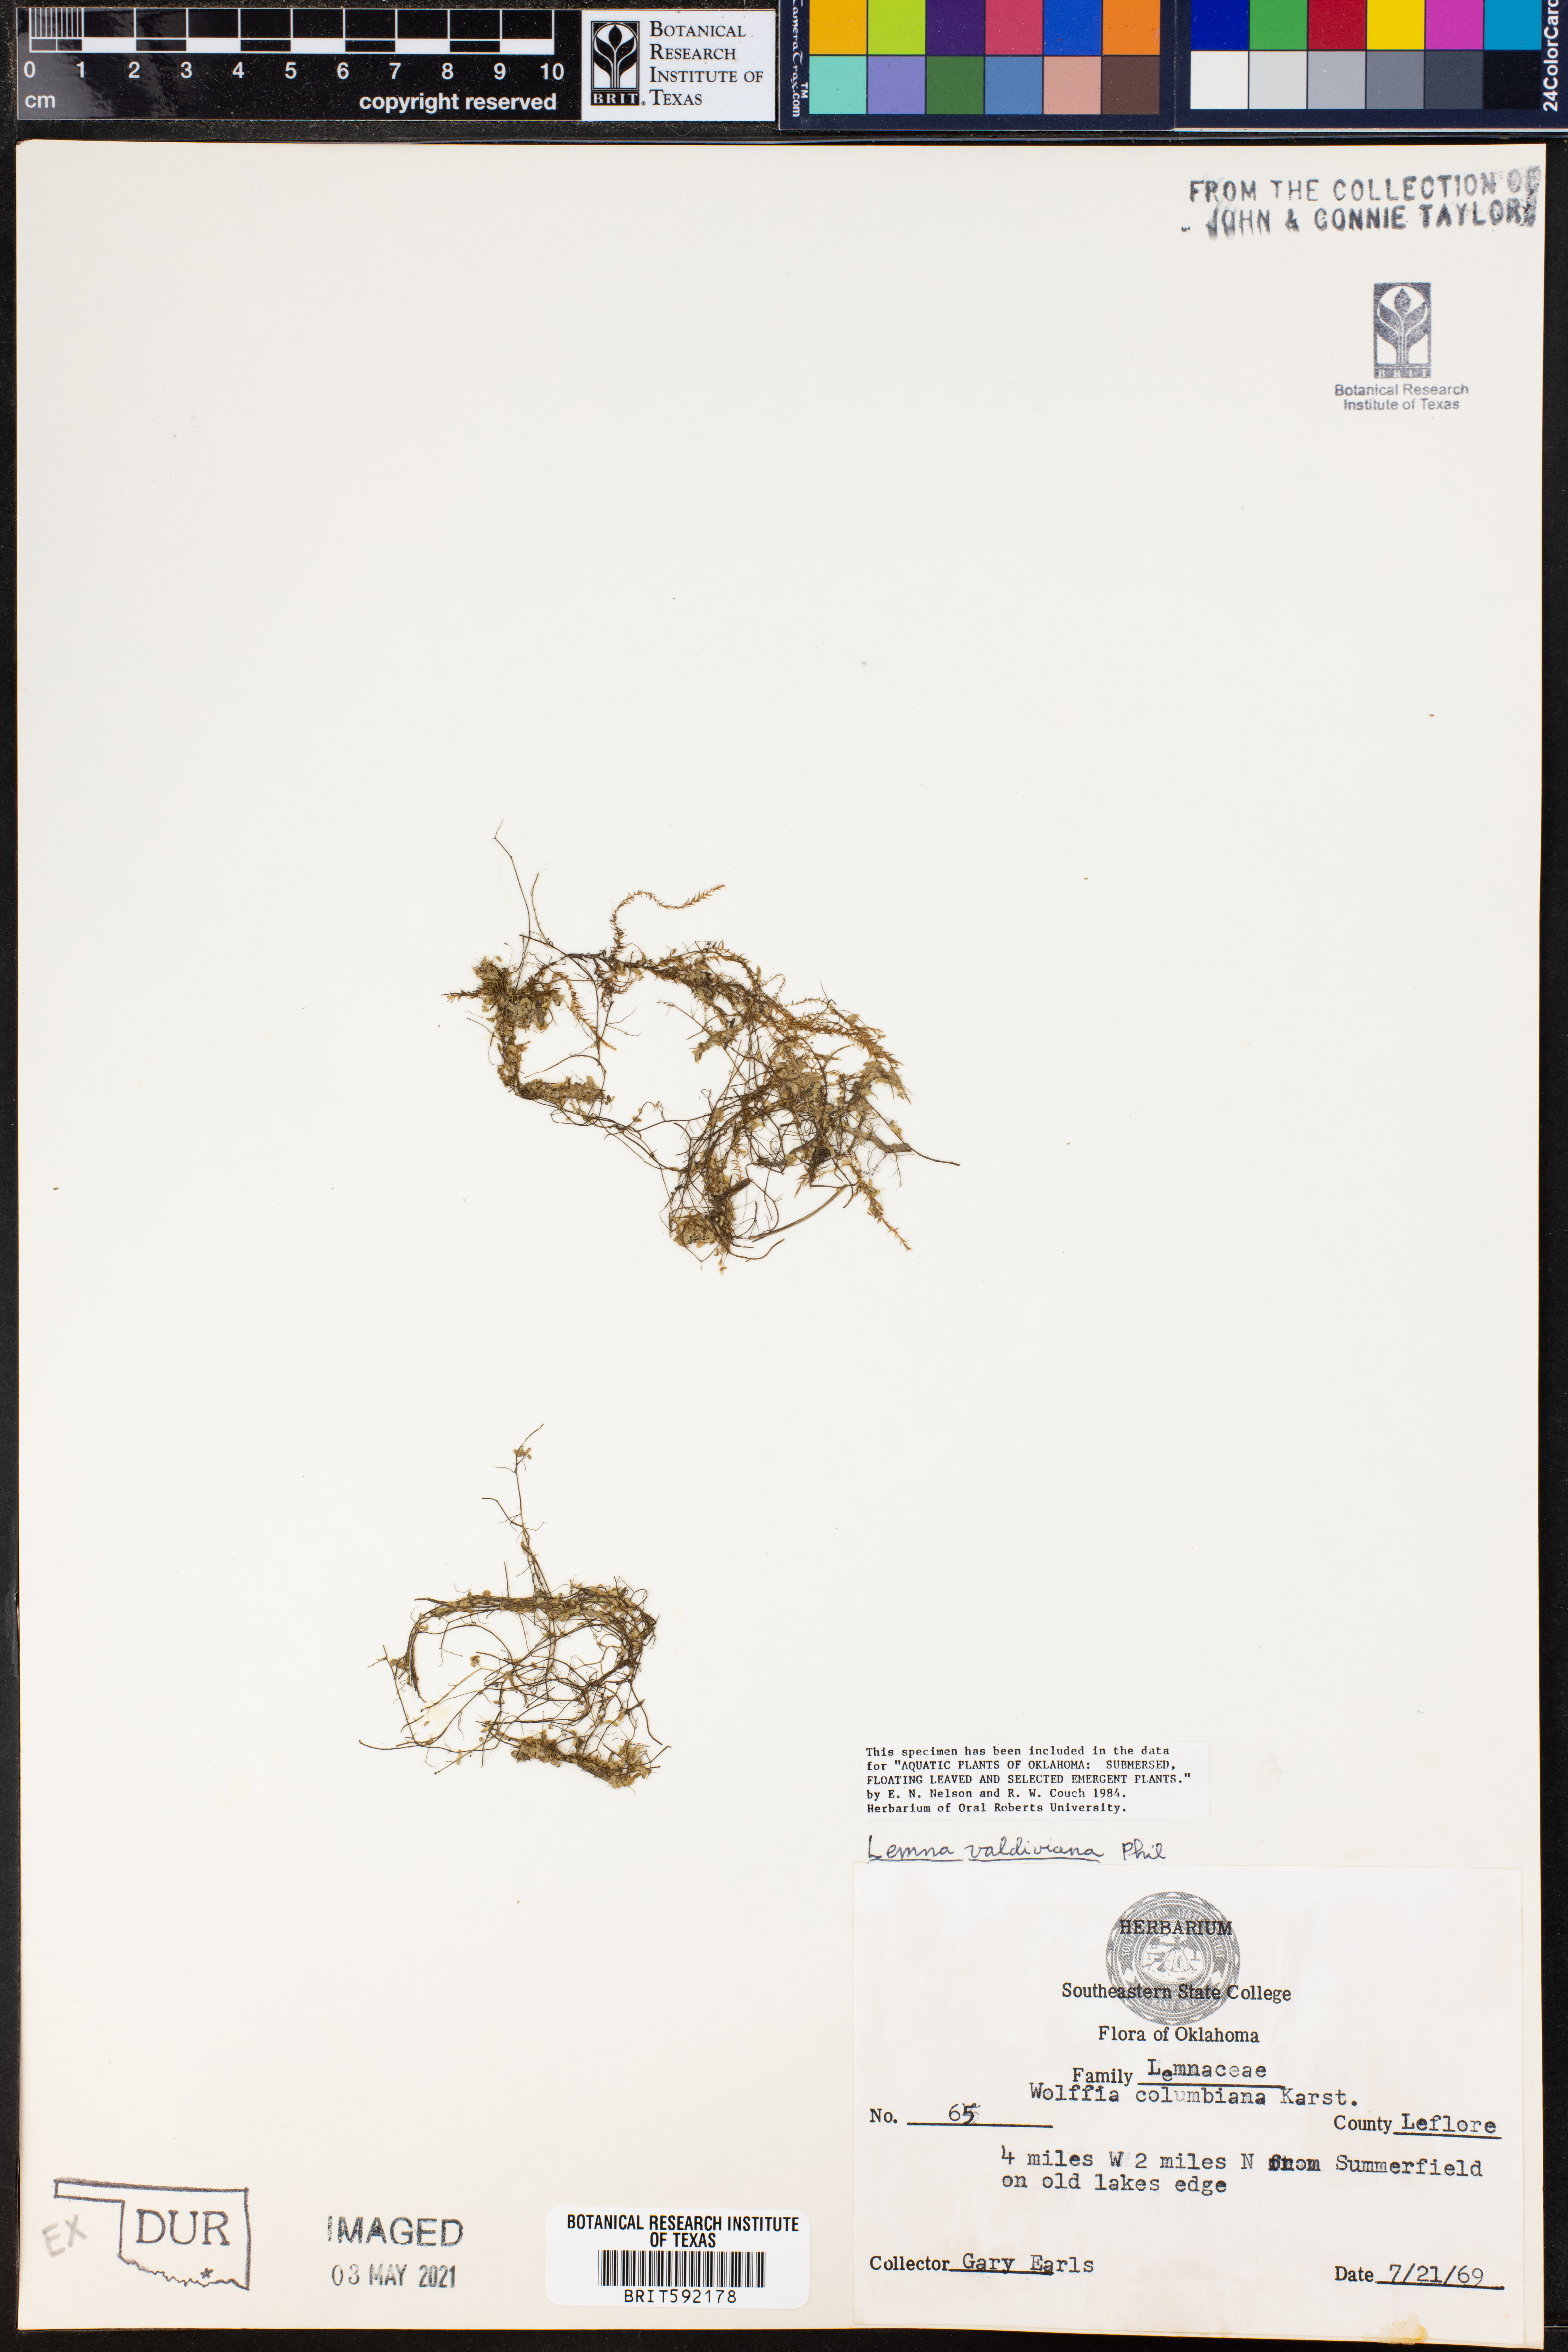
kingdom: Plantae
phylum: Tracheophyta
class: Liliopsida
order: Alismatales
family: Araceae
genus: Lemna
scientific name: Lemna valdiviana
